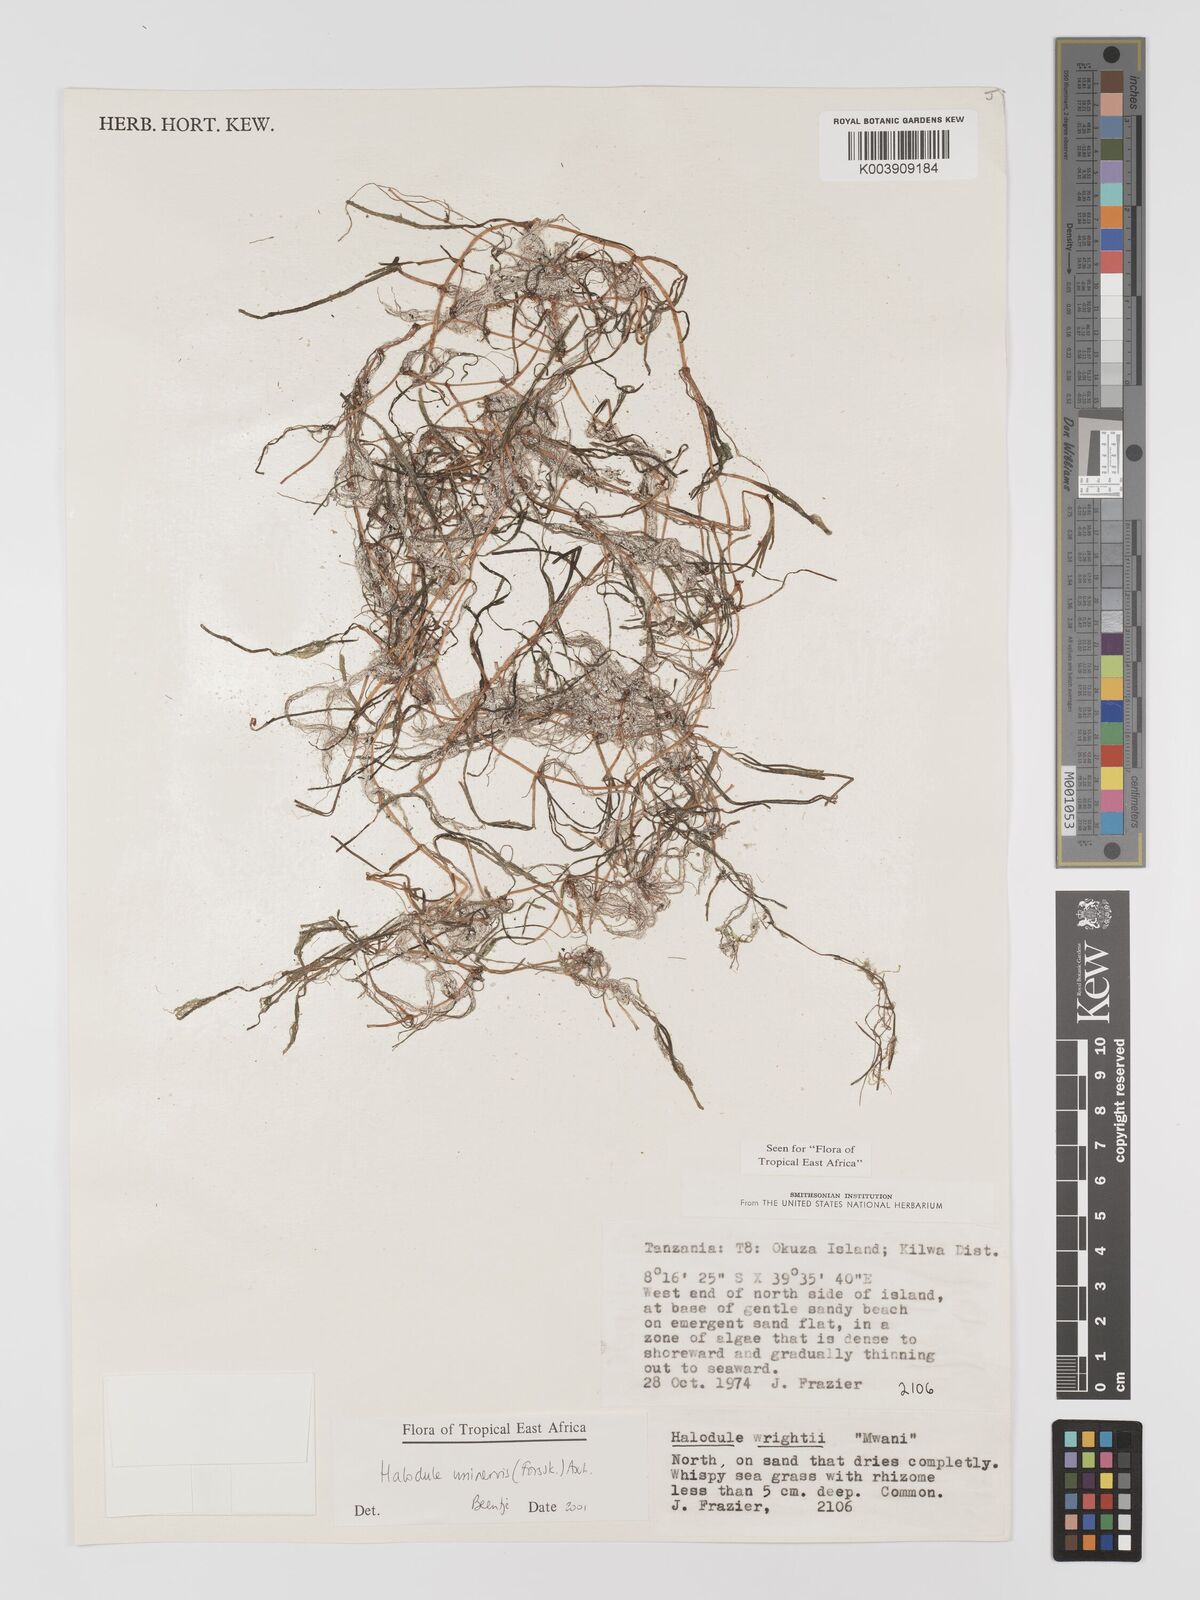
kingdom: Plantae
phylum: Tracheophyta
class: Liliopsida
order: Alismatales
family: Cymodoceaceae
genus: Halodule
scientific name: Halodule uninervis
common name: Narrowleaf seagrass
